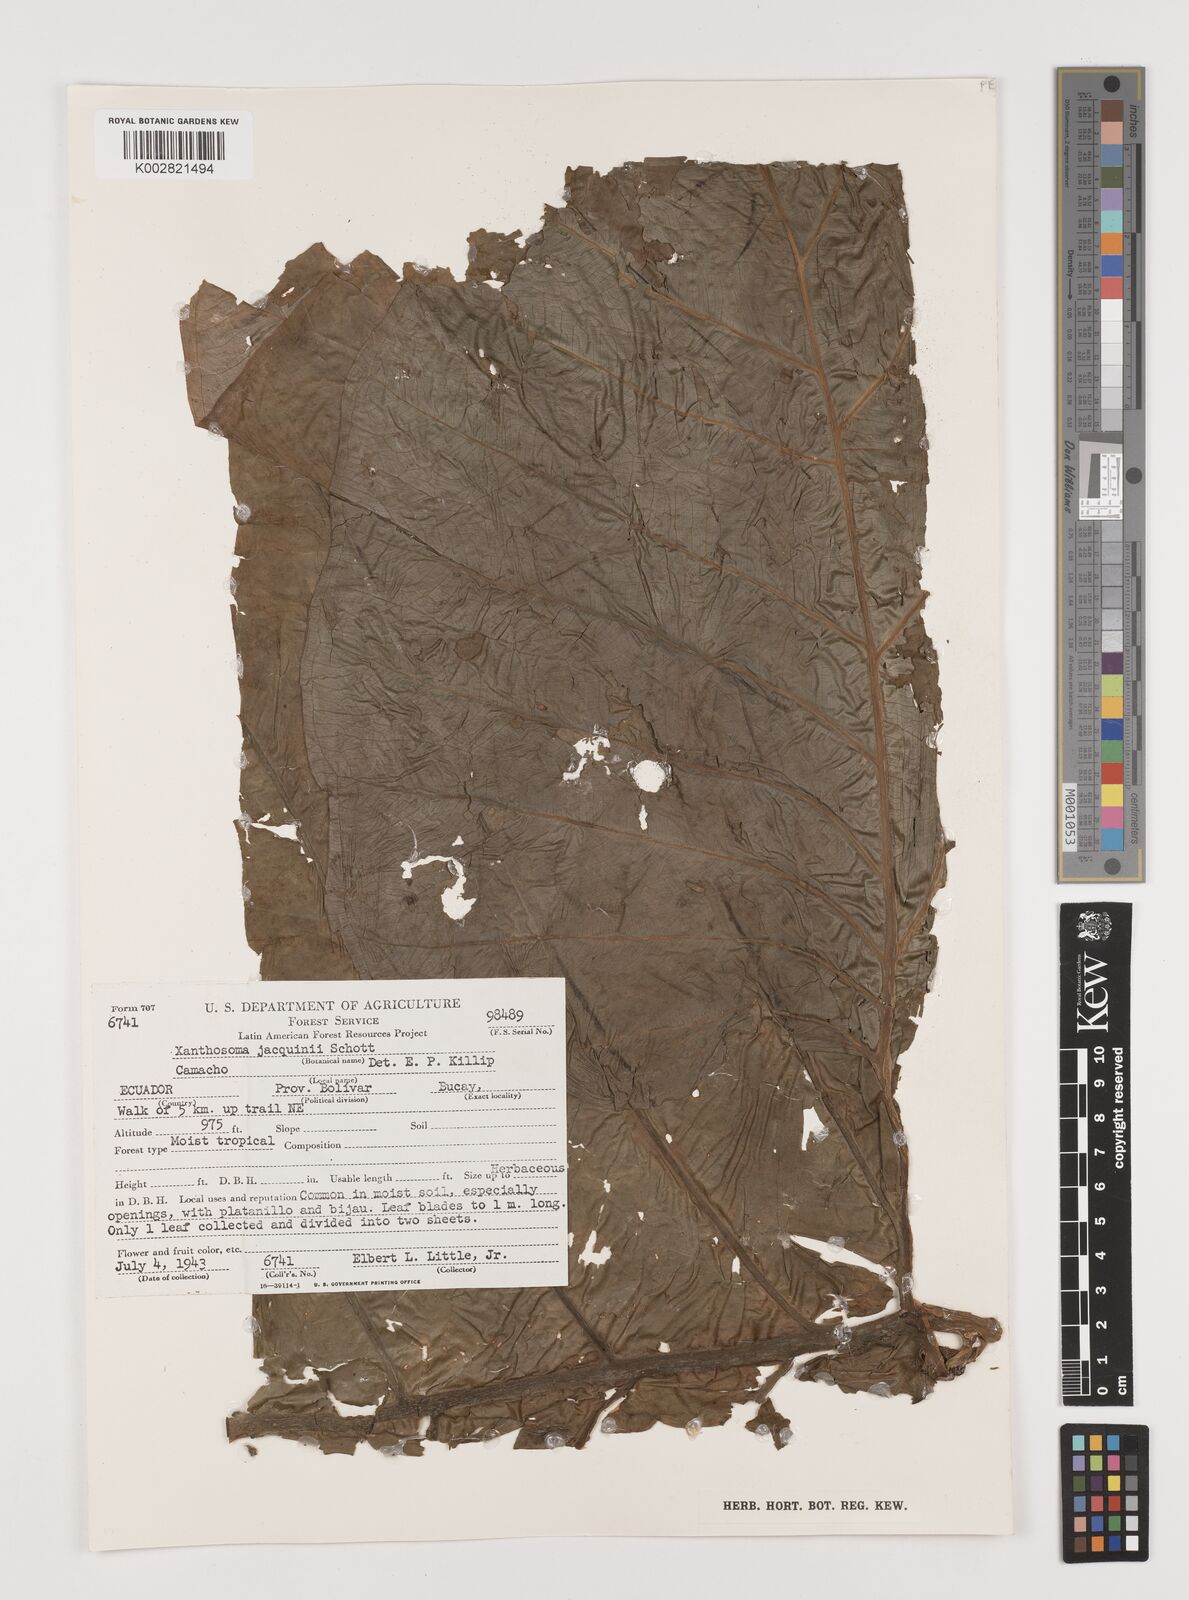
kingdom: Plantae
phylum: Tracheophyta
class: Liliopsida
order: Alismatales
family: Araceae
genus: Xanthosoma
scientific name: Xanthosoma undipes
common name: Tall elephant's ear
